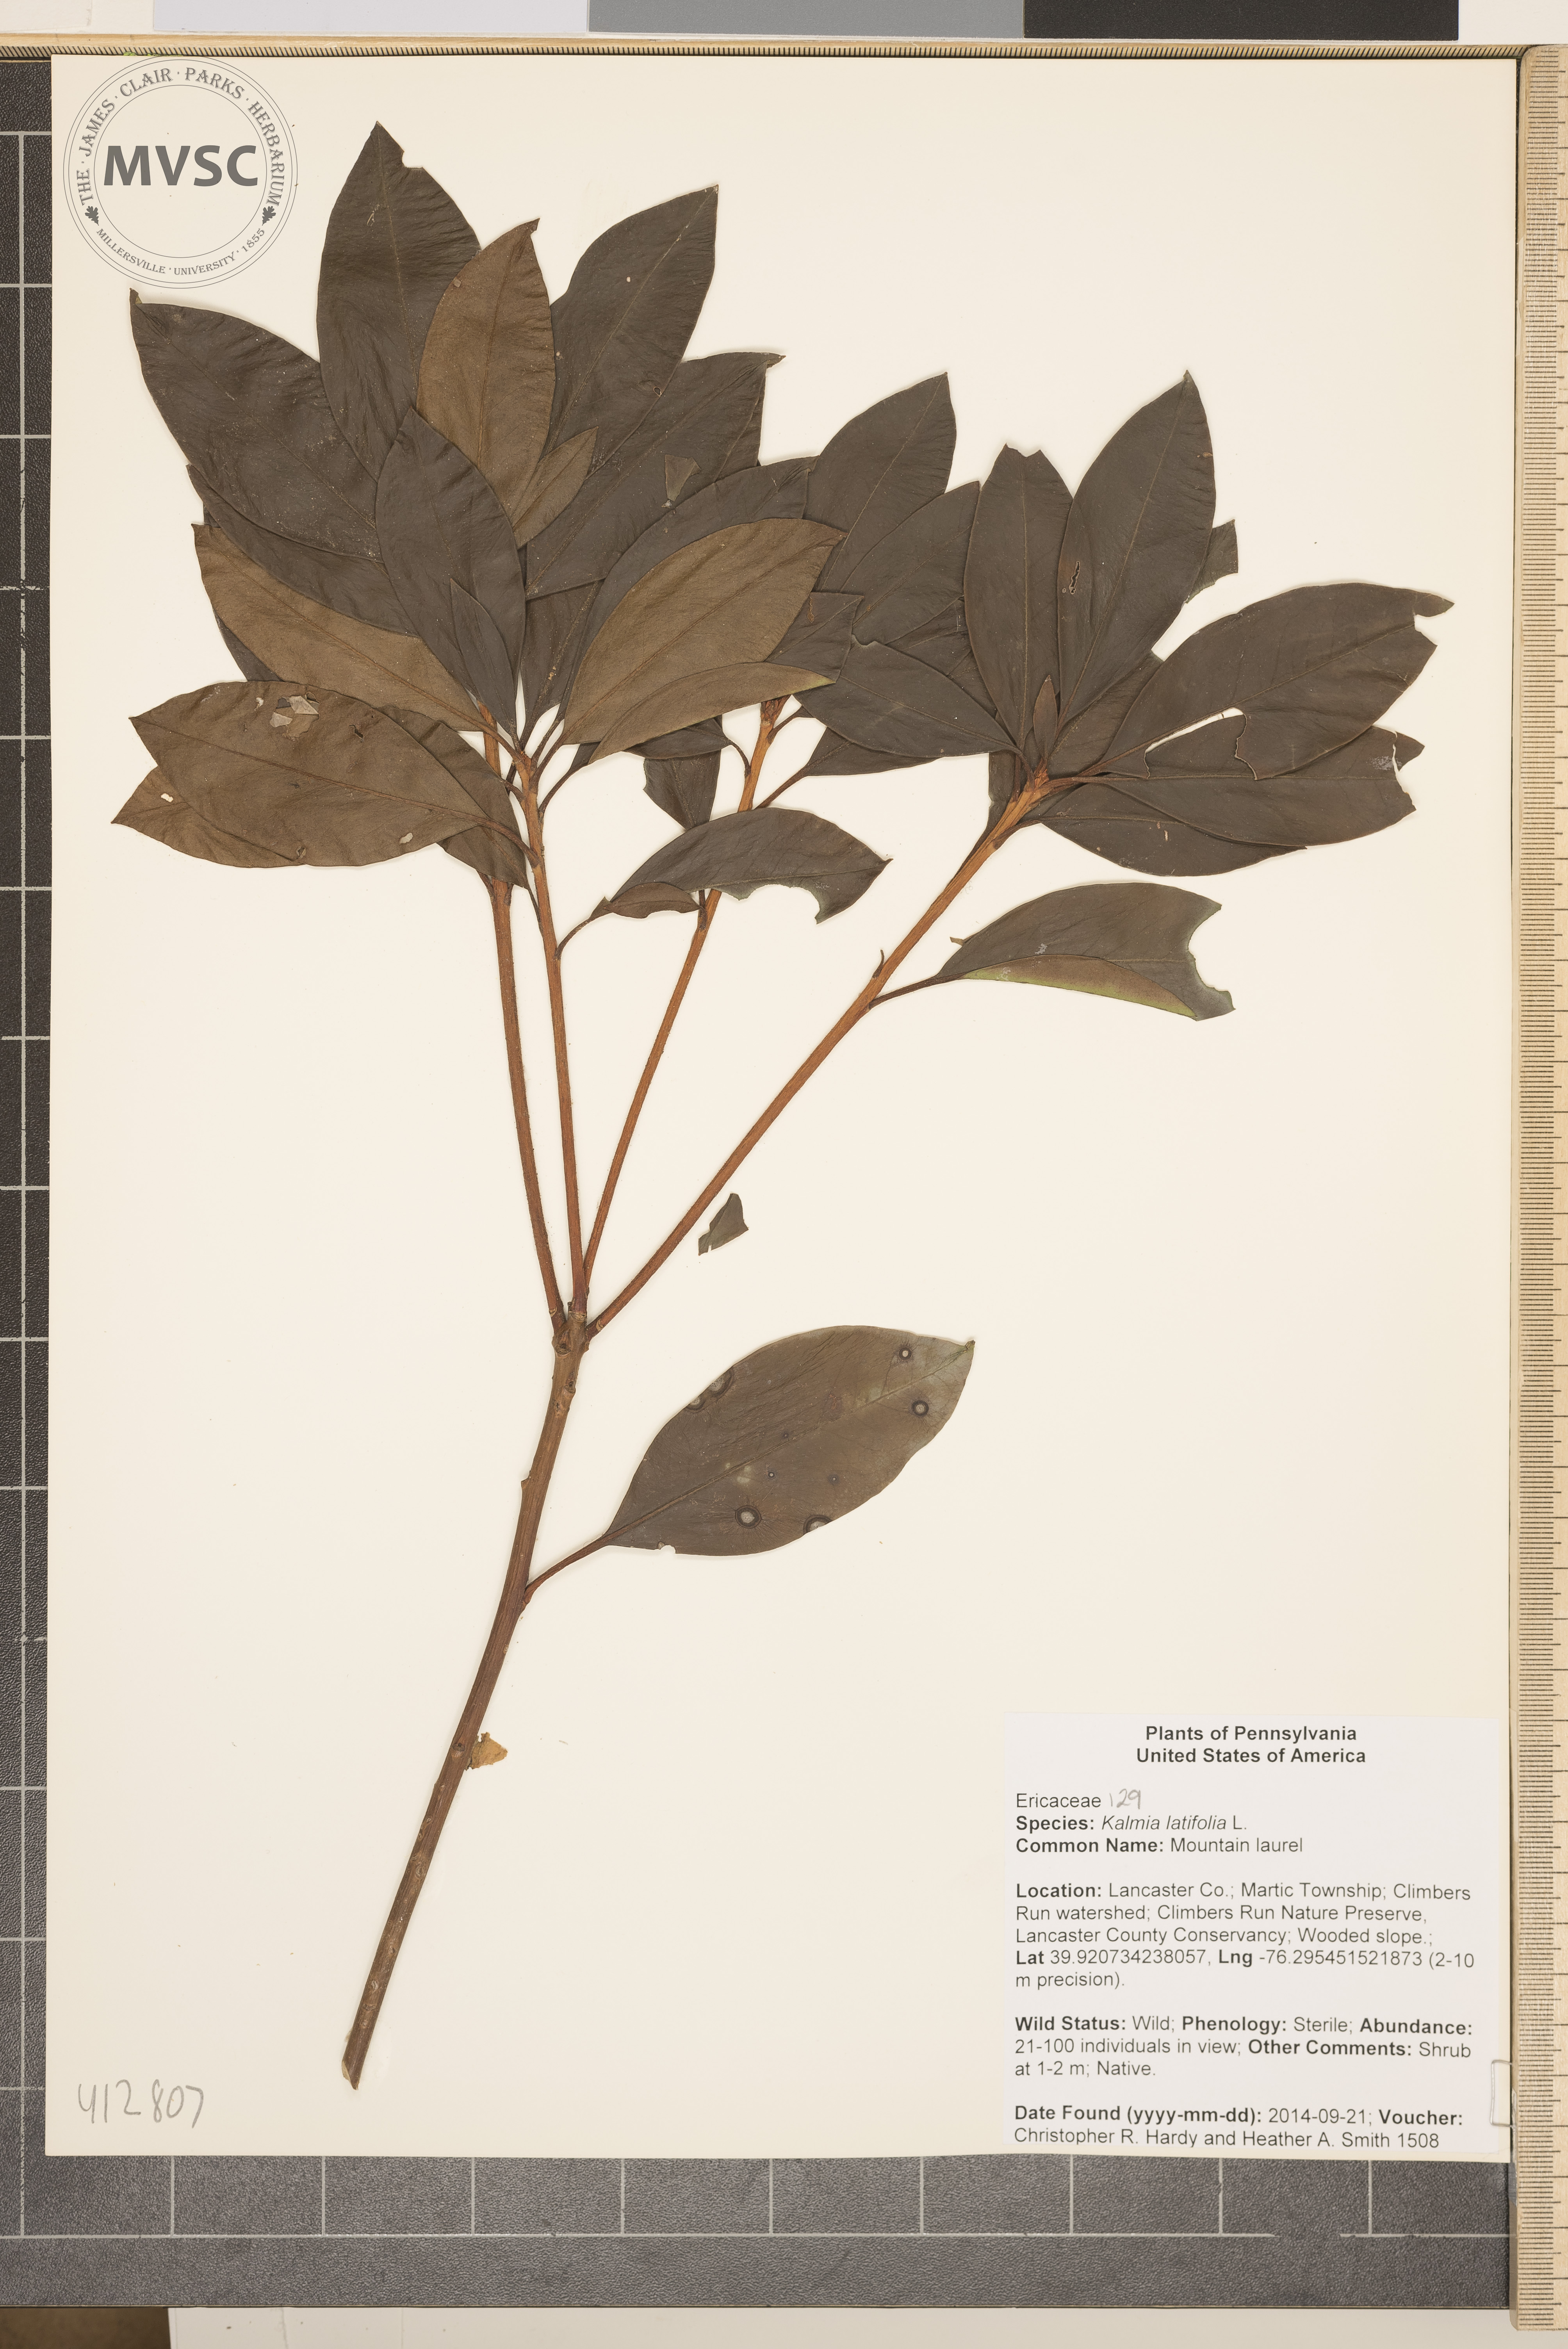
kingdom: Plantae
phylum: Tracheophyta
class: Magnoliopsida
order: Ericales
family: Ericaceae
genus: Kalmia
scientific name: Kalmia latifolia
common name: mountain laurel
